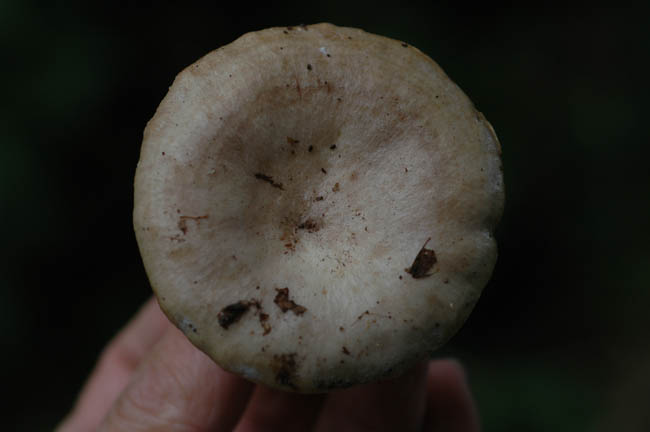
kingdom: Fungi
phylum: Basidiomycota
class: Agaricomycetes
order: Russulales
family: Russulaceae
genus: Lactarius
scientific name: Lactarius circellatus
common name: avnbøg-mælkehat
